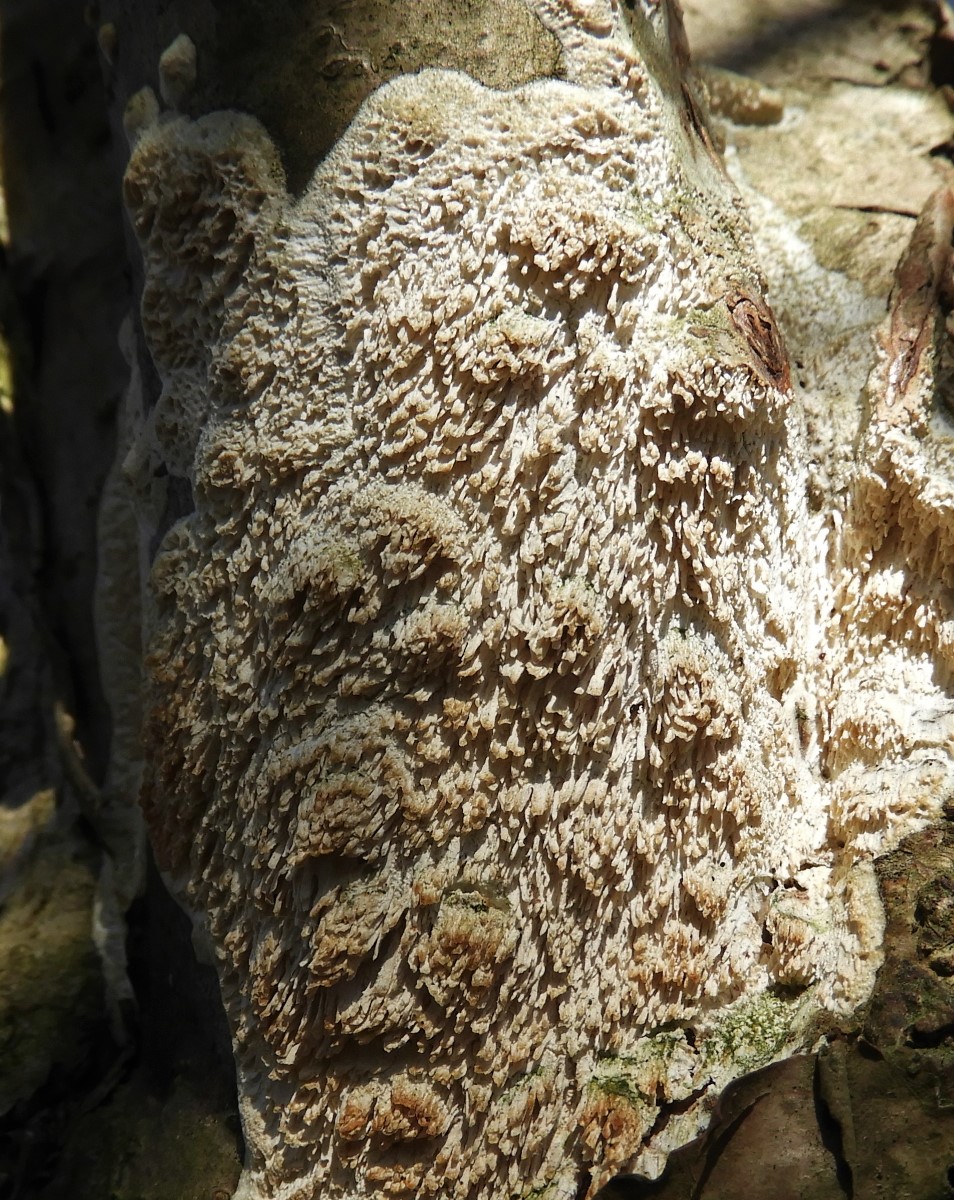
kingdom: Fungi
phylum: Basidiomycota
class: Agaricomycetes
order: Hymenochaetales
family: Schizoporaceae
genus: Xylodon
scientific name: Xylodon radula
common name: grovtandet kalkskind
